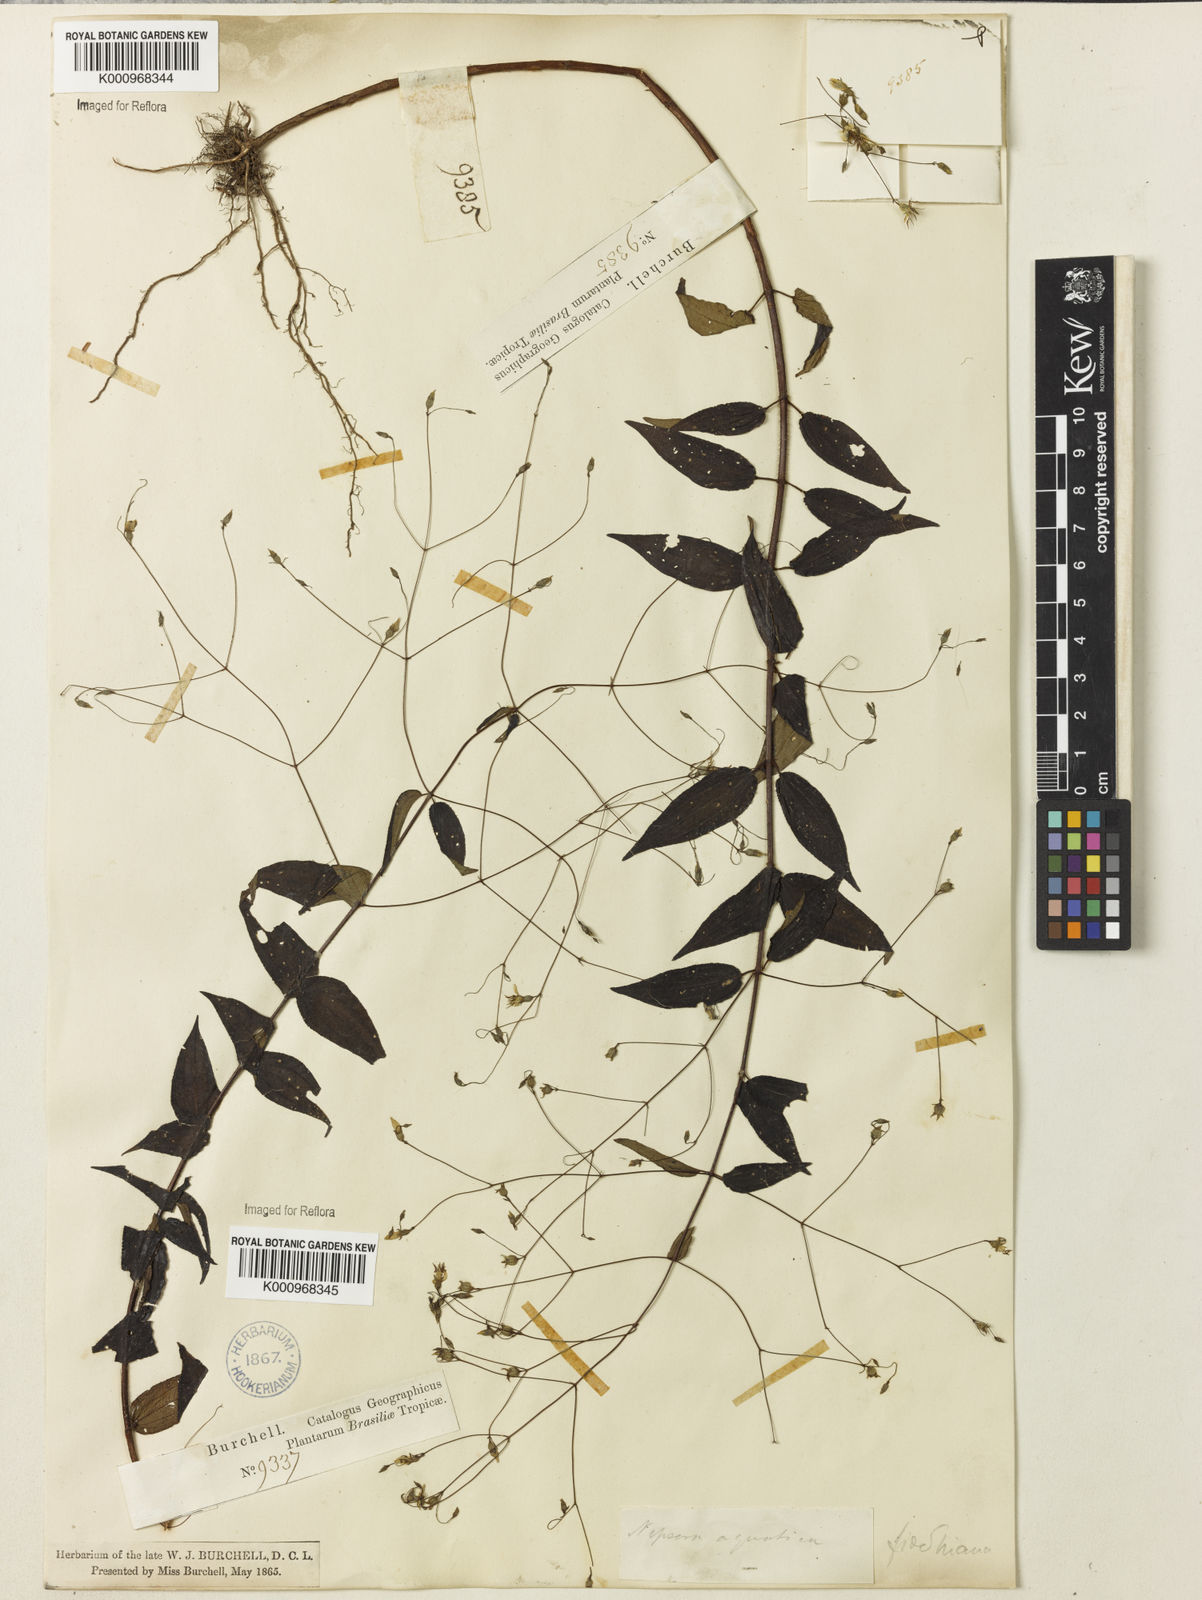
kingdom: Plantae
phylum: Tracheophyta
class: Magnoliopsida
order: Myrtales
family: Melastomataceae
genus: Nepsera
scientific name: Nepsera aquatica
